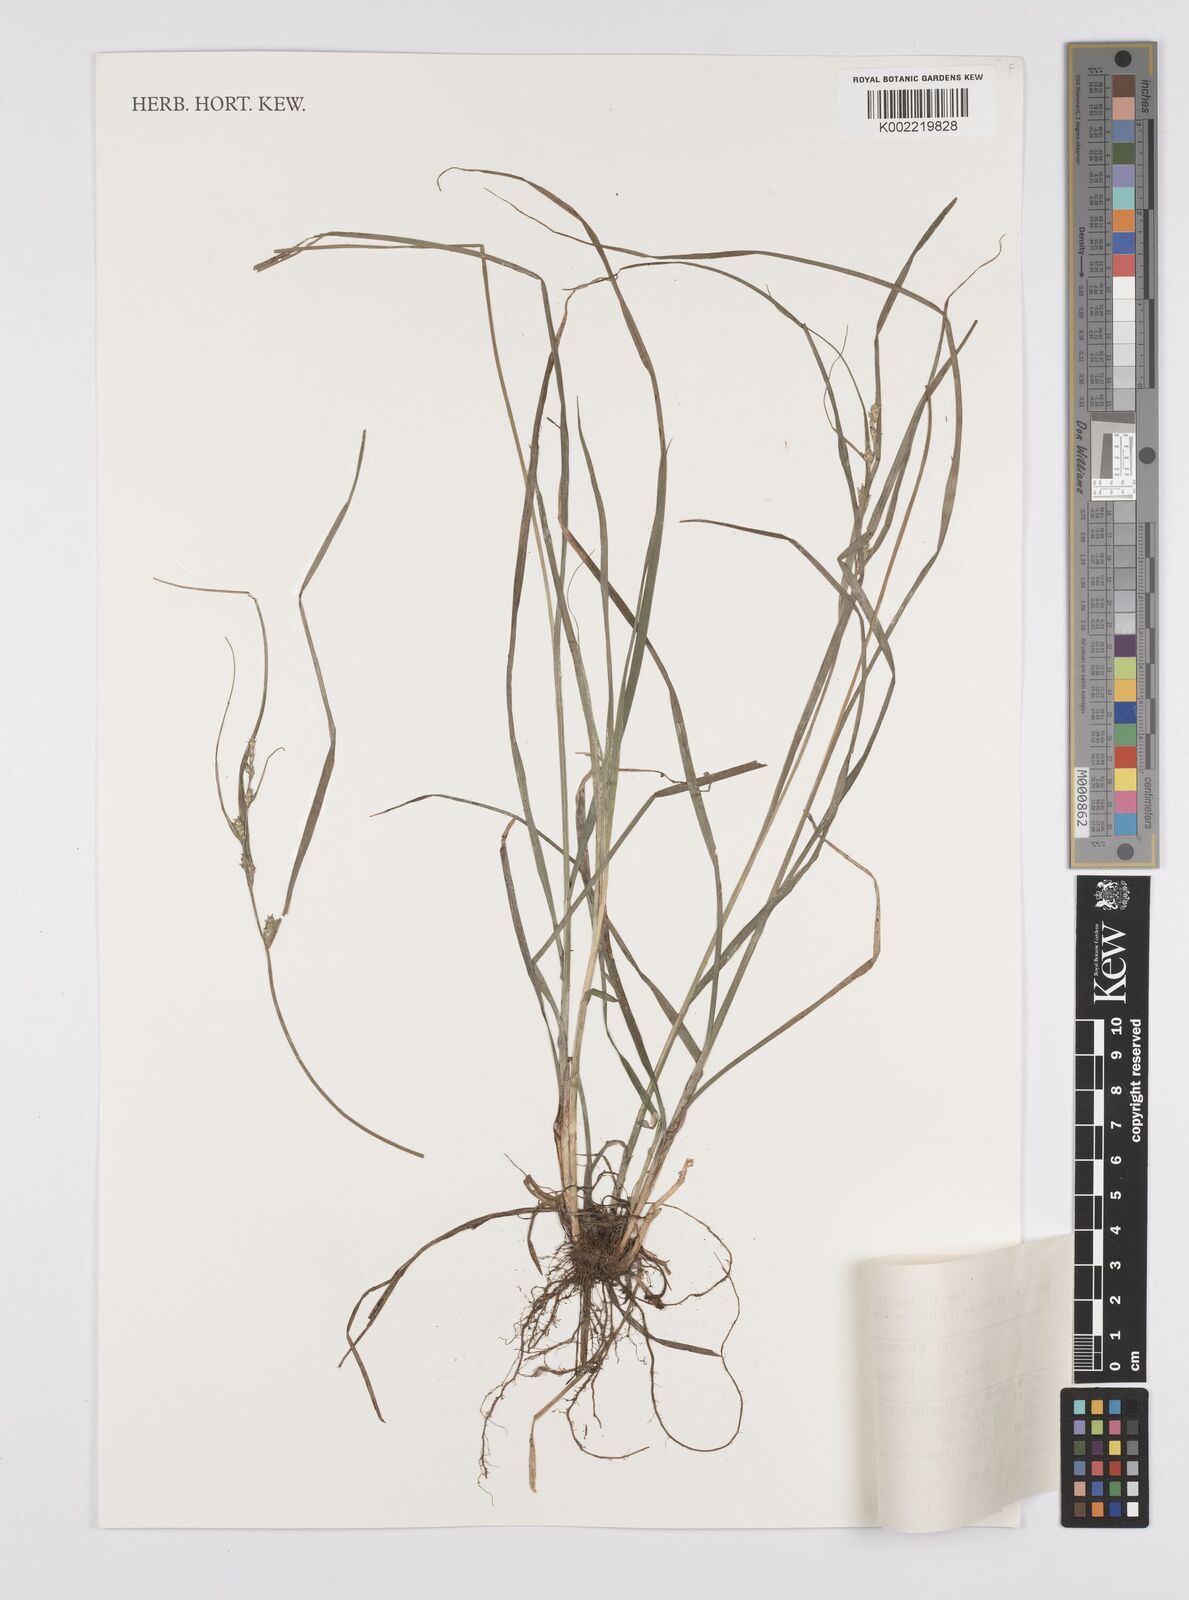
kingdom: Plantae
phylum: Tracheophyta
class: Liliopsida
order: Poales
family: Cyperaceae
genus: Carex
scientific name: Carex gibba
